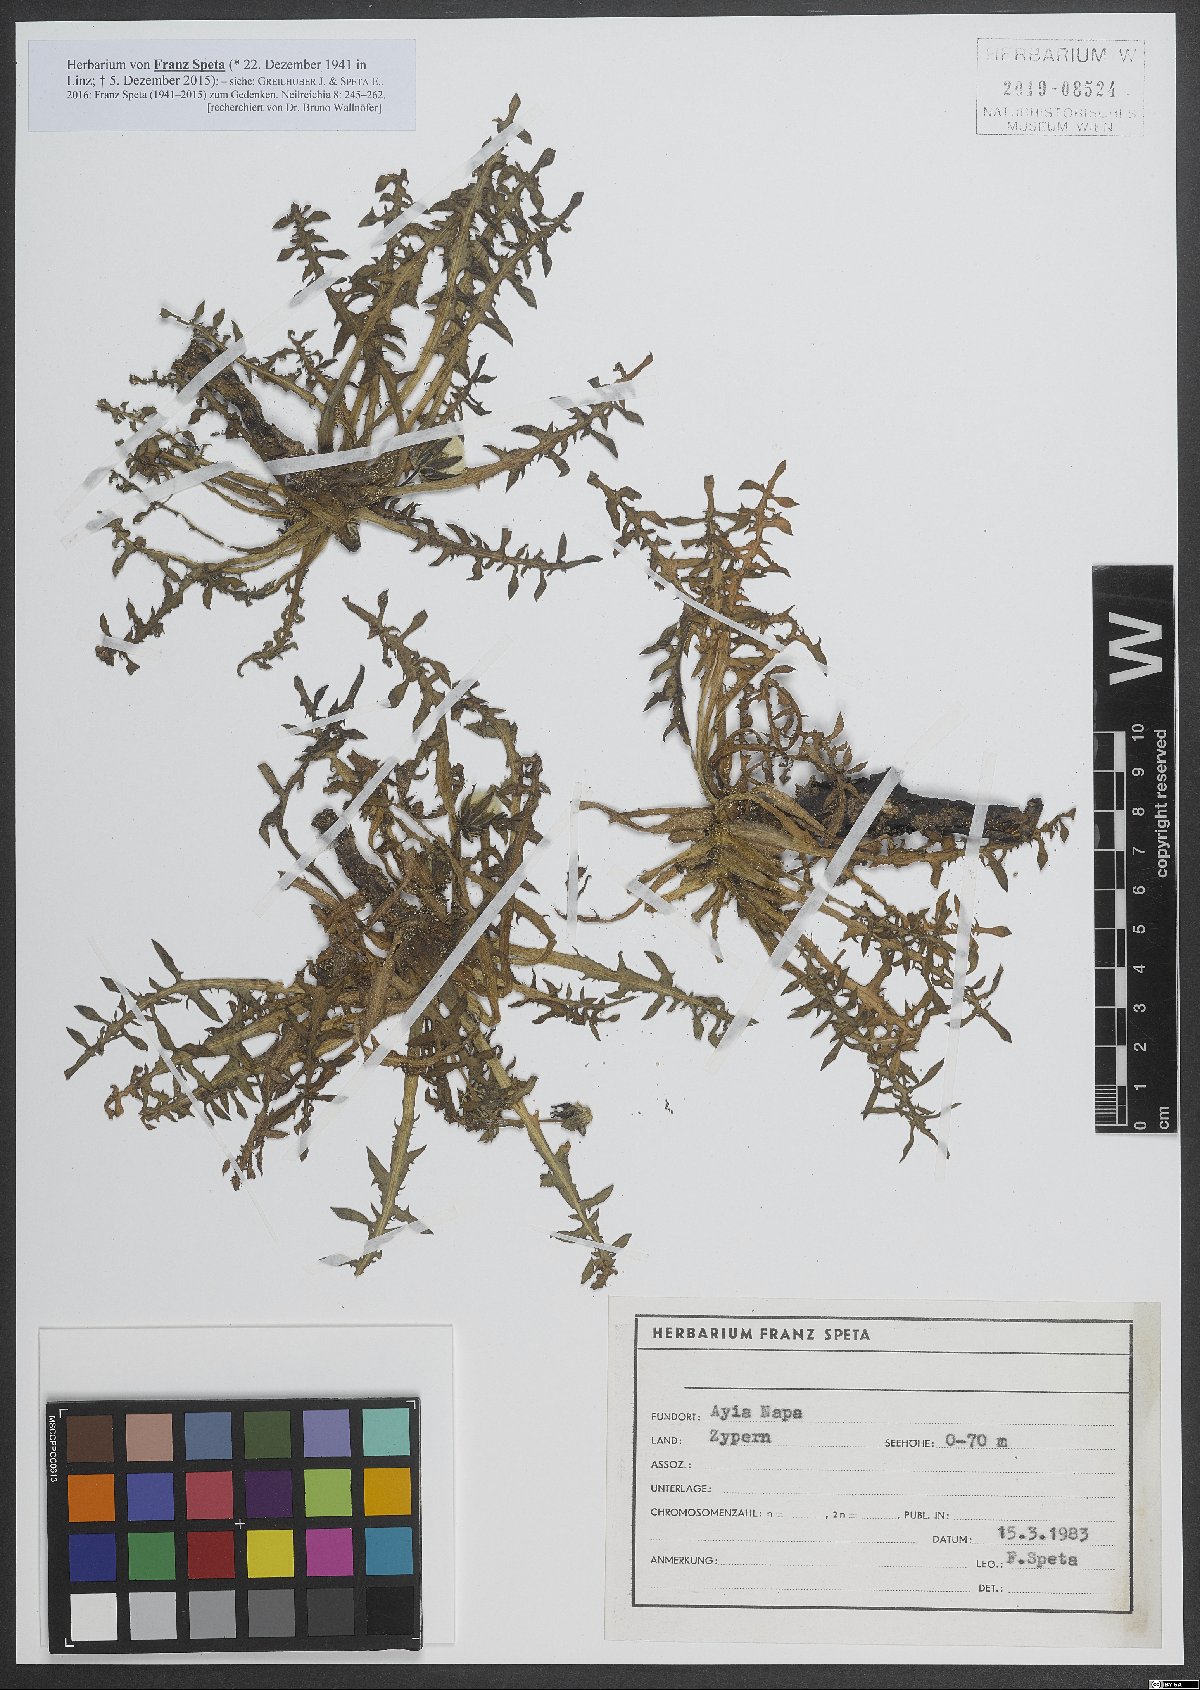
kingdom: Plantae
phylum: Tracheophyta
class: Magnoliopsida
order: Asterales
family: Asteraceae
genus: Taraxacum
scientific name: Taraxacum
